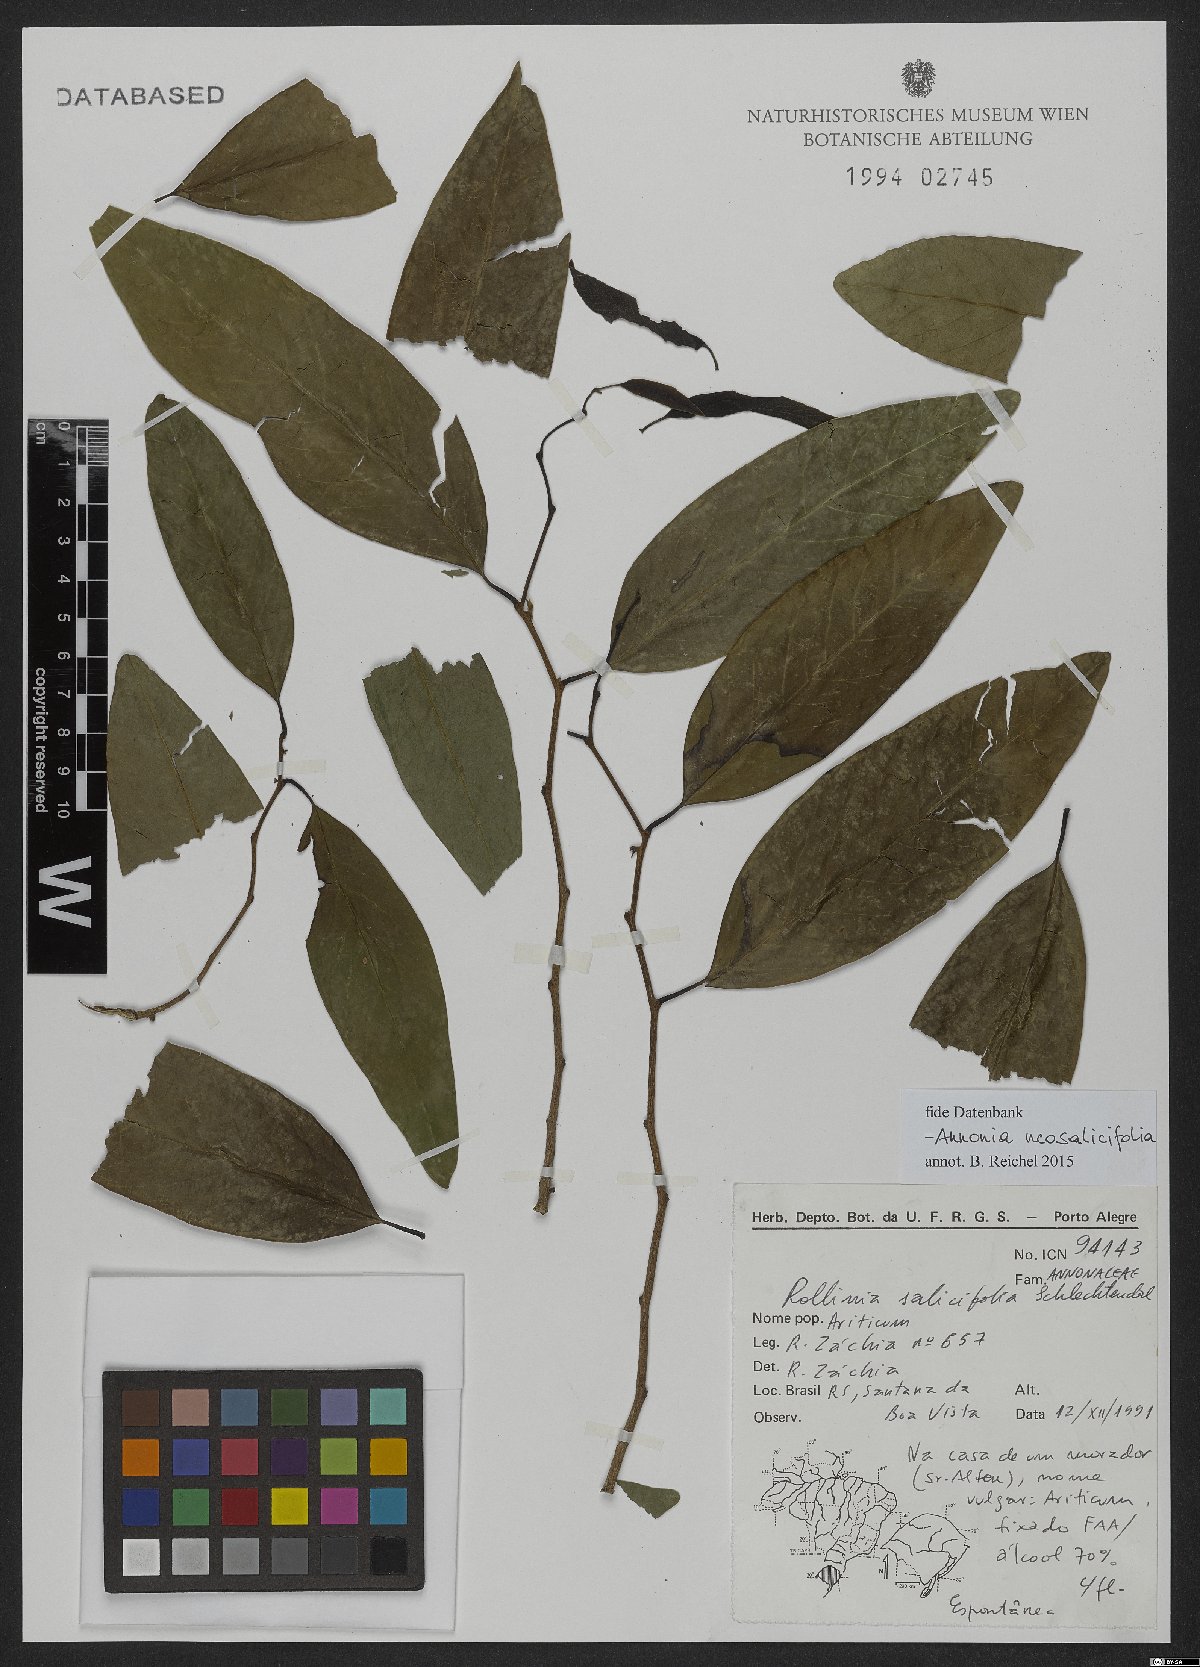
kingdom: Plantae
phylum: Tracheophyta
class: Magnoliopsida
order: Magnoliales
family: Annonaceae
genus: Annona
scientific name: Annona neosalicifolia
